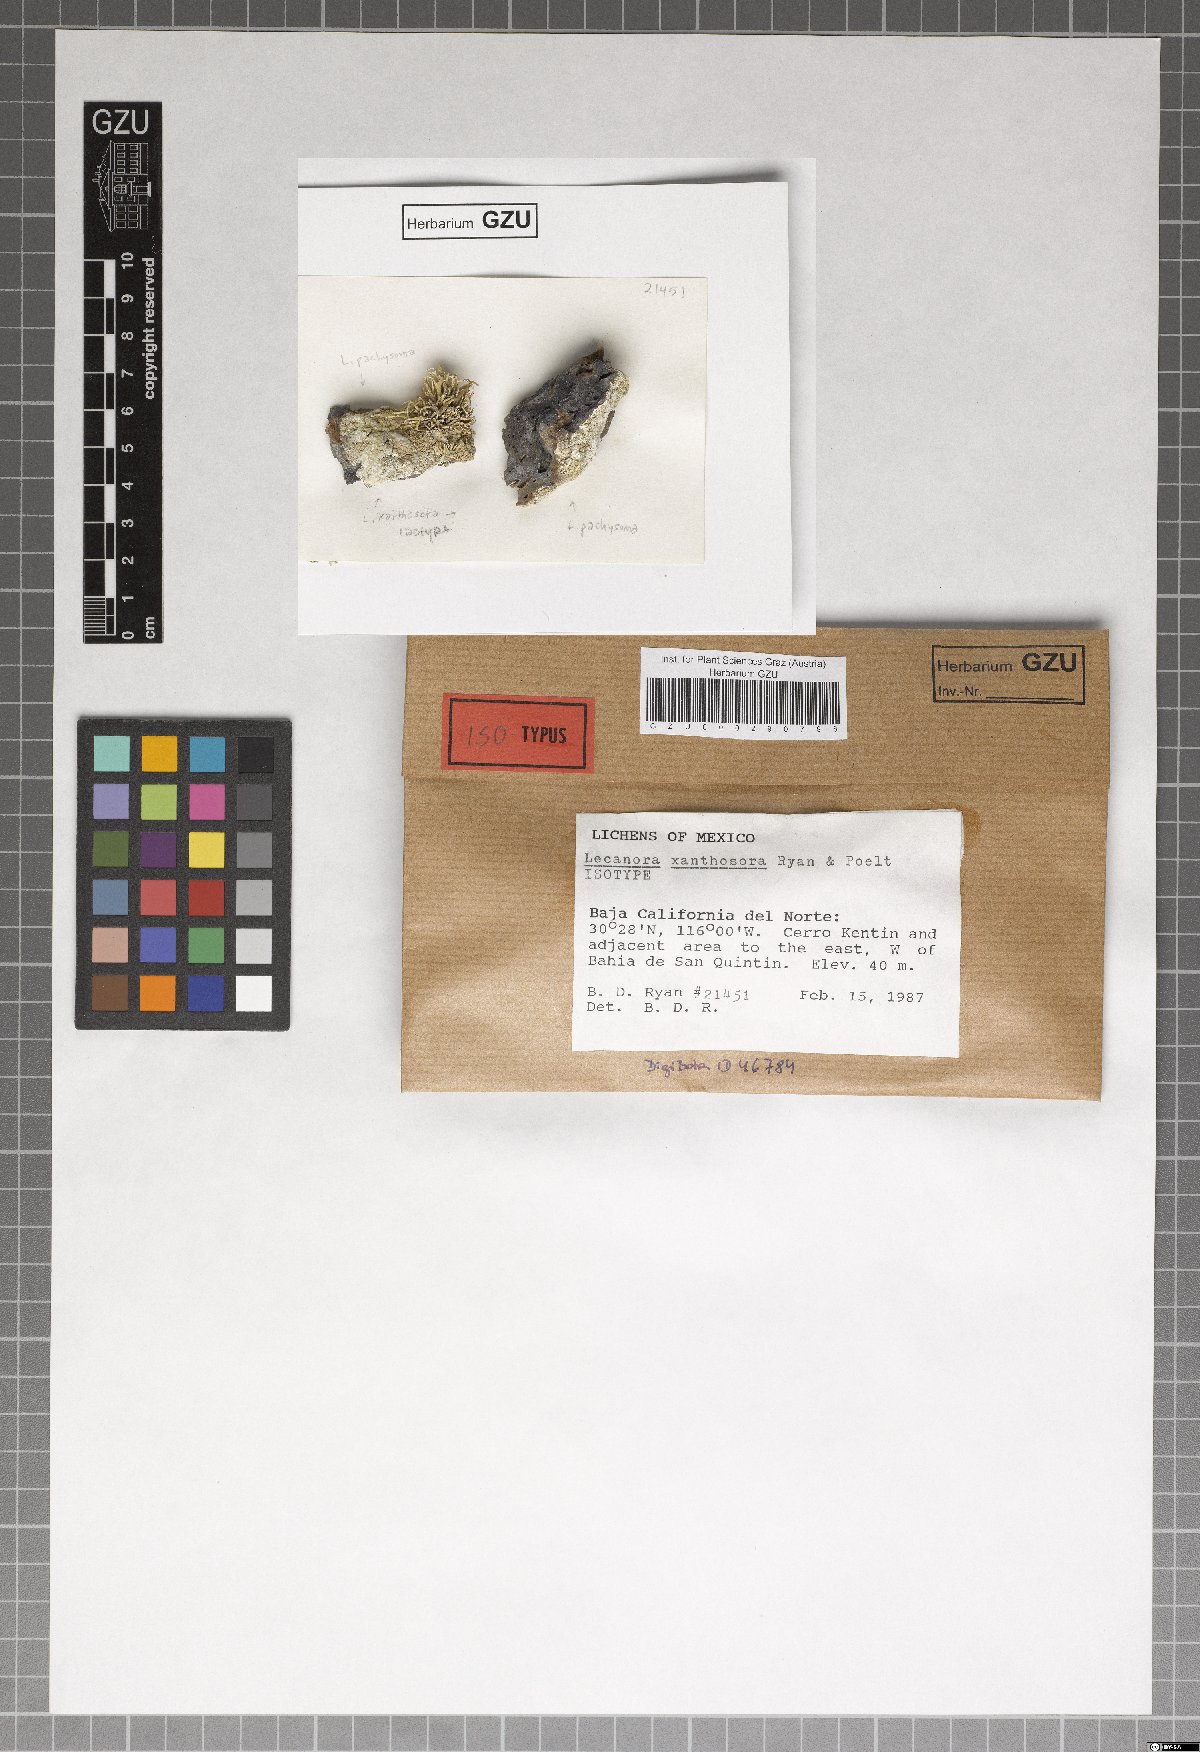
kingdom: Fungi
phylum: Ascomycota
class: Lecanoromycetes
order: Lecanorales
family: Lecanoraceae
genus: Lecanora
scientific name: Lecanora xanthosora
